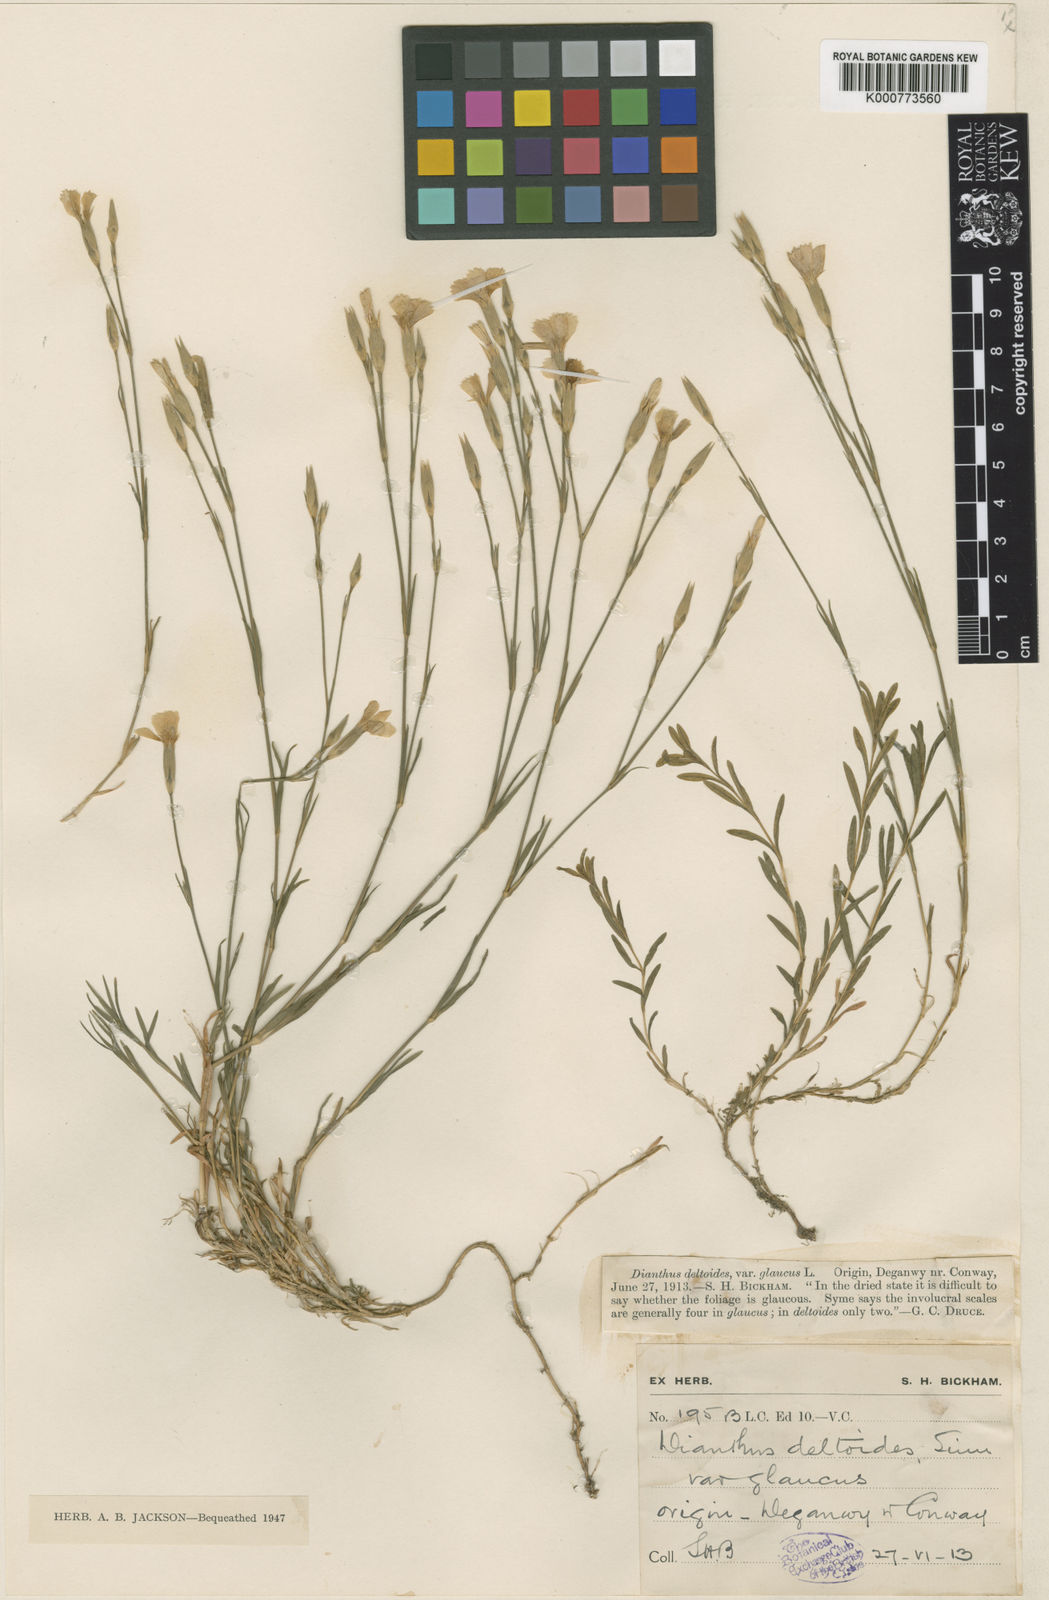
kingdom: Plantae
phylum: Tracheophyta
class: Magnoliopsida
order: Caryophyllales
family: Caryophyllaceae
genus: Dianthus
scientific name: Dianthus deltoides
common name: Maiden pink
